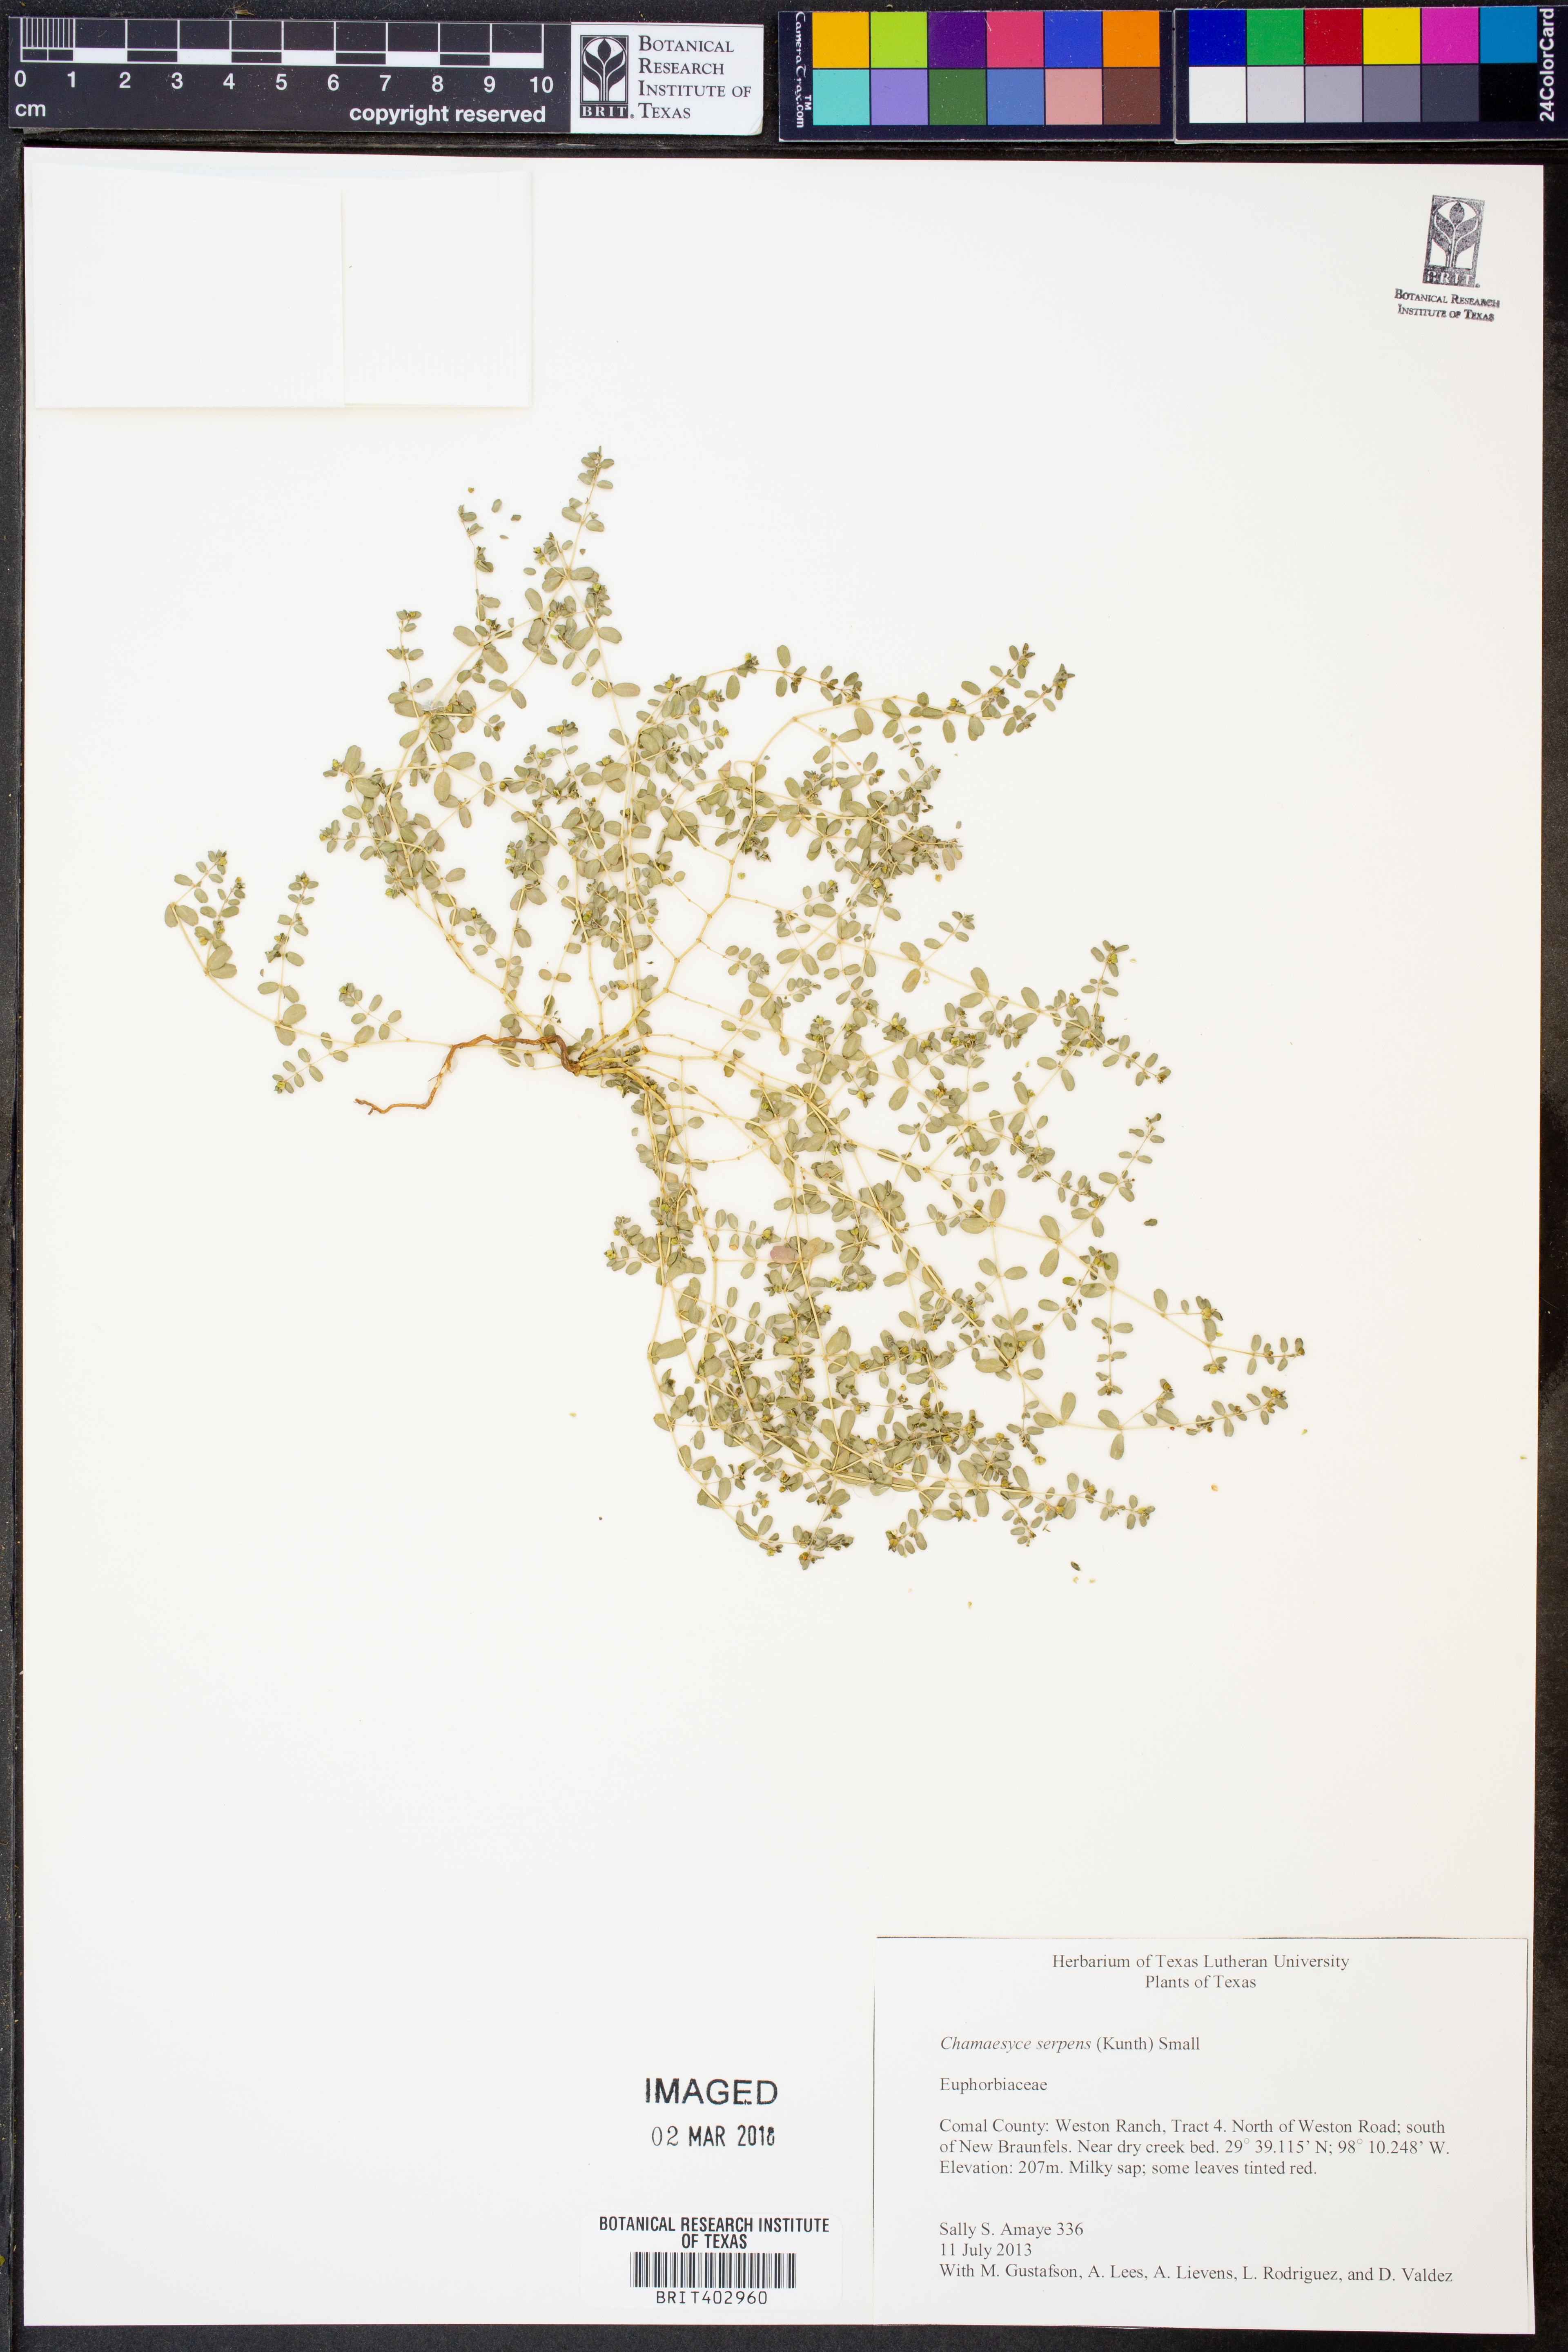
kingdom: Plantae
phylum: Tracheophyta
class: Magnoliopsida
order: Malpighiales
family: Euphorbiaceae
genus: Euphorbia
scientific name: Euphorbia serpens
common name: Matted sandmat
